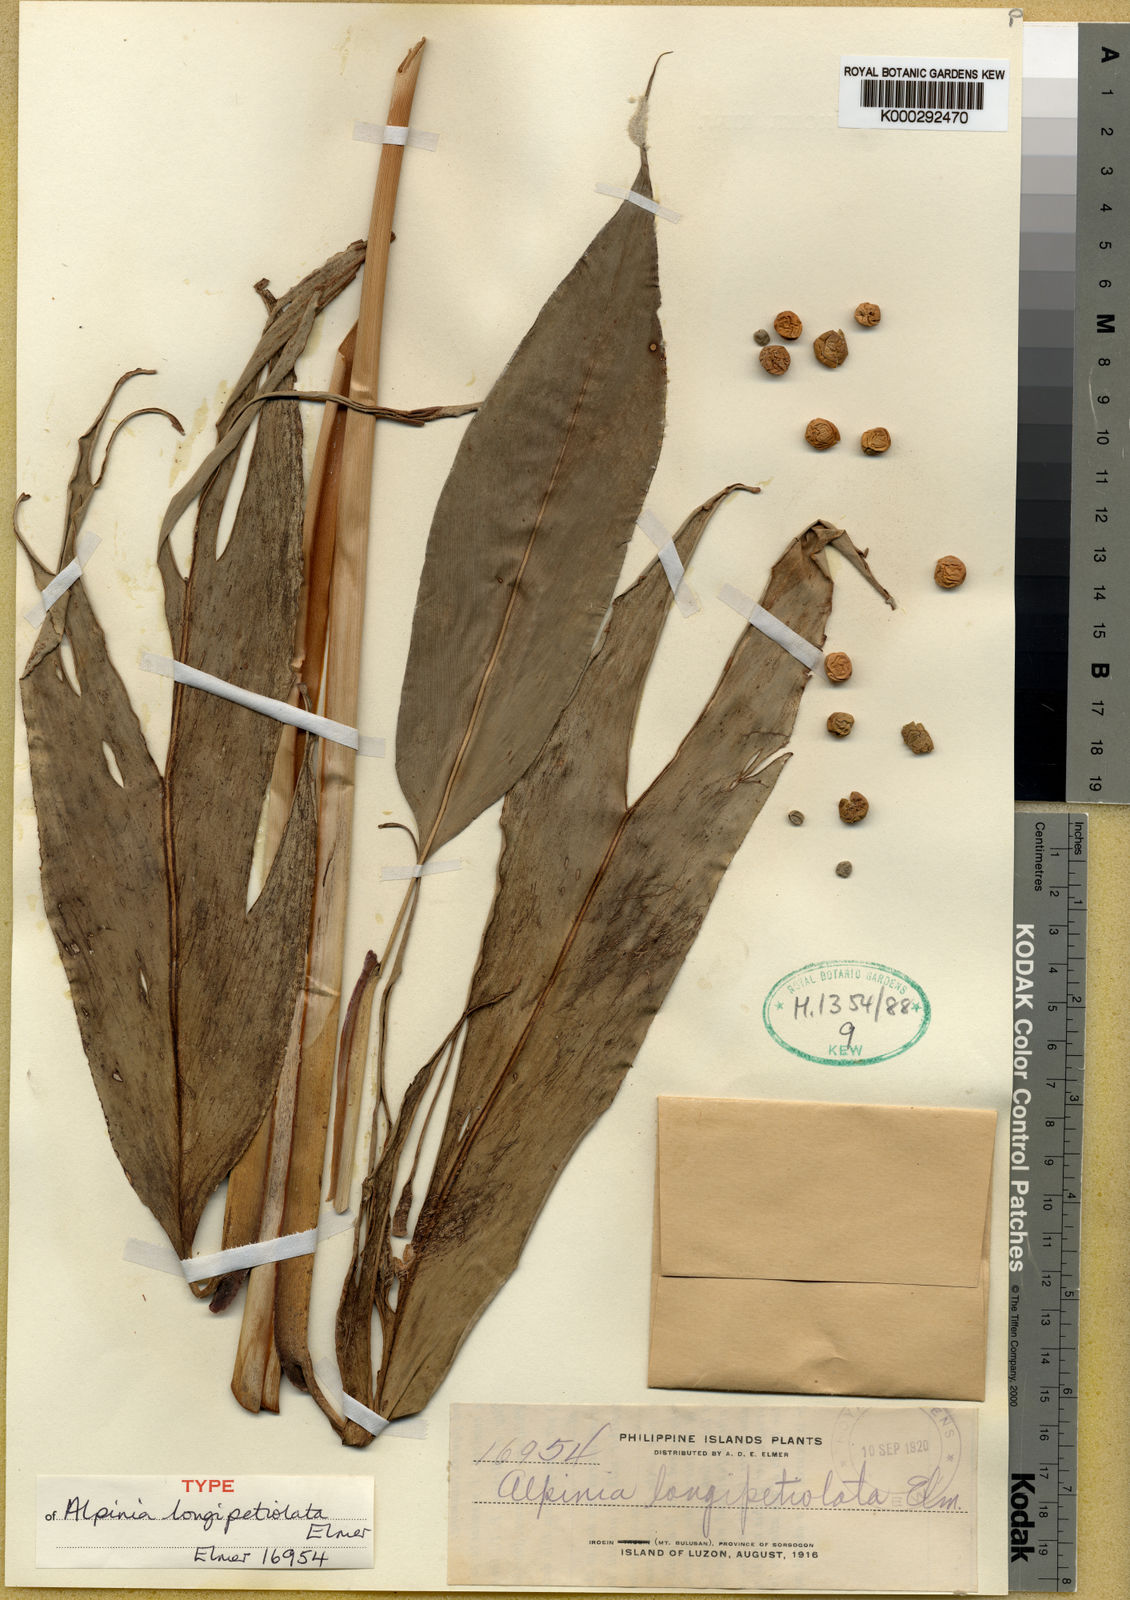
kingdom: Plantae
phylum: Tracheophyta
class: Liliopsida
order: Zingiberales
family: Zingiberaceae
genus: Alpinia
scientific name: Alpinia elmeri
